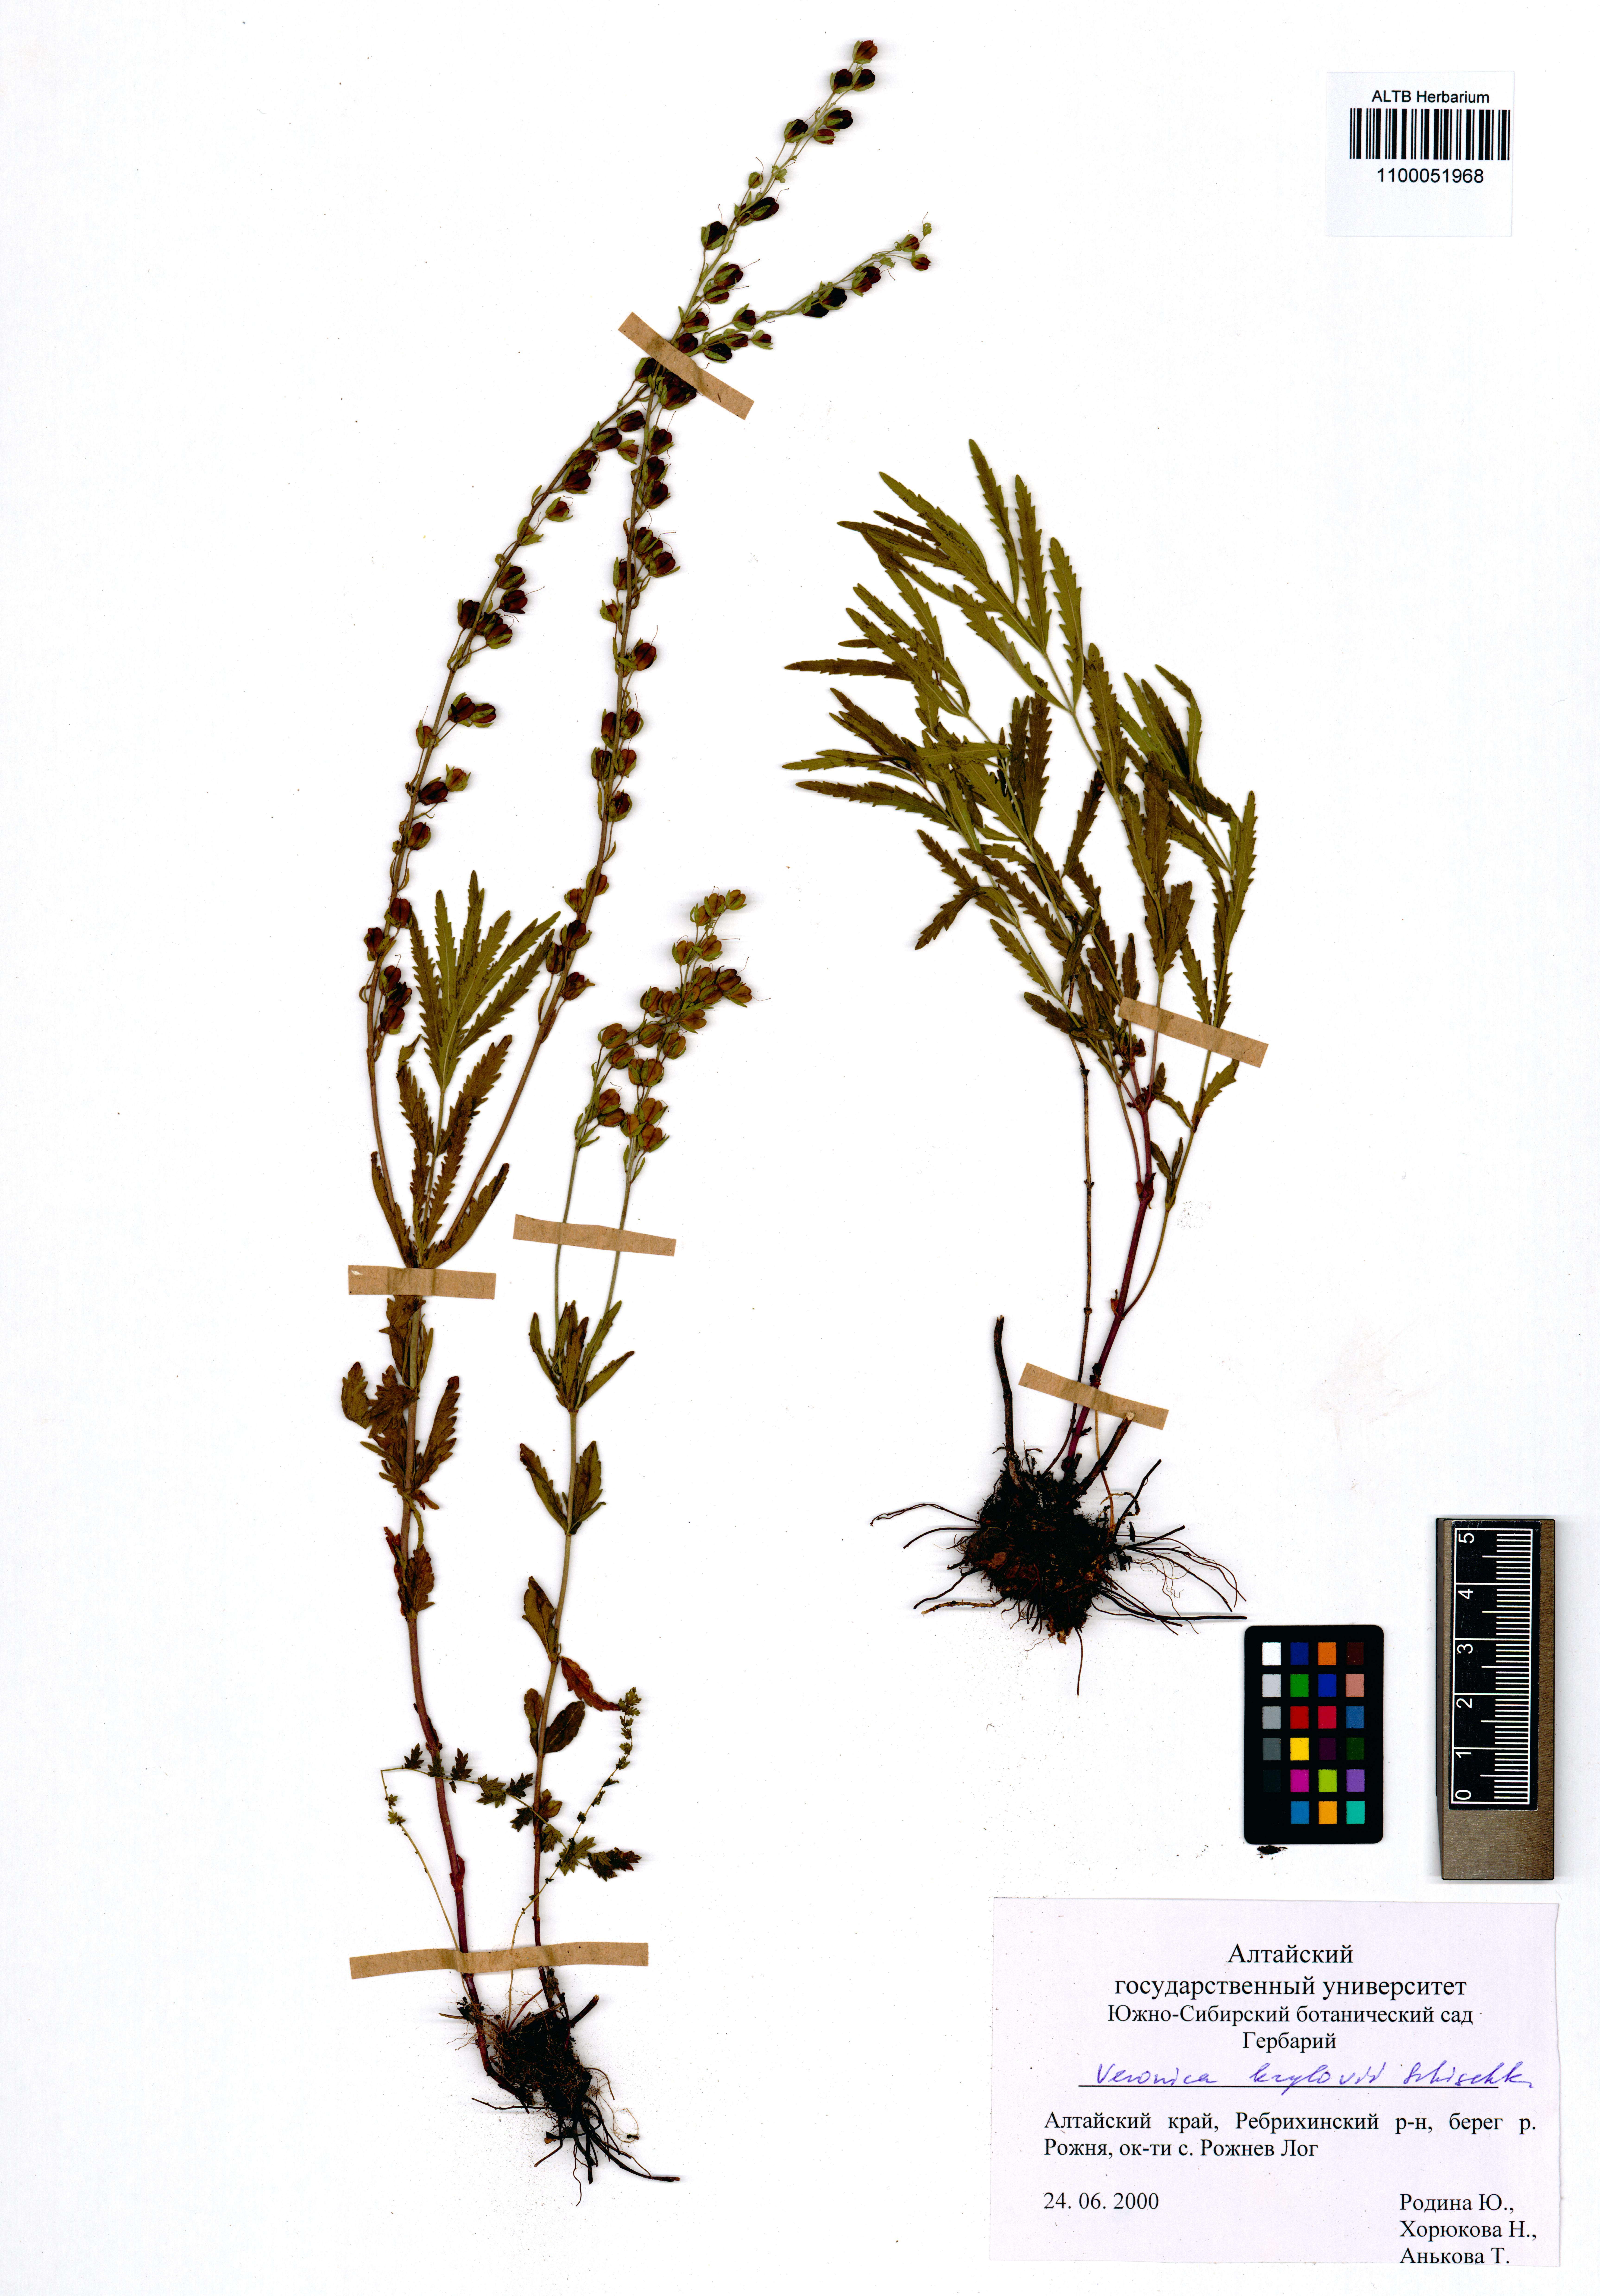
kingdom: Plantae
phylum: Tracheophyta
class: Magnoliopsida
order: Lamiales
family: Plantaginaceae
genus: Veronica
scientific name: Veronica krylovii
